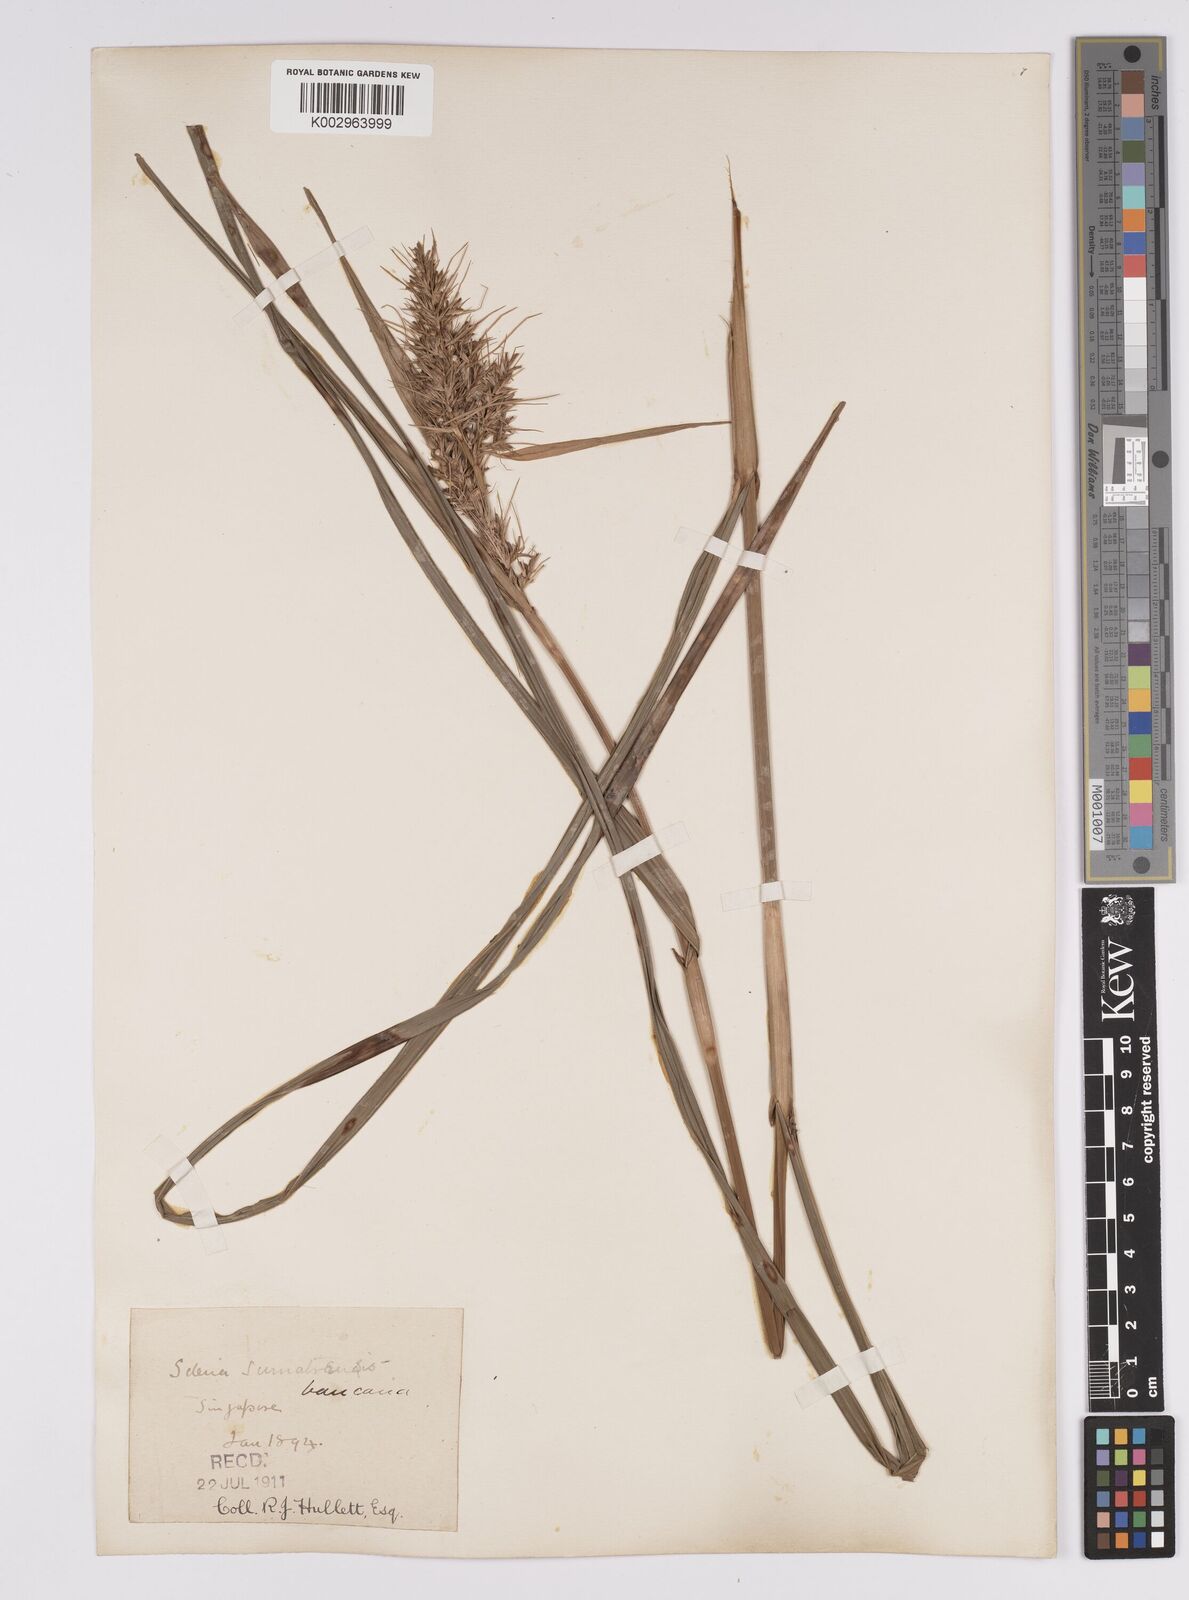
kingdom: Plantae
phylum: Tracheophyta
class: Liliopsida
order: Poales
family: Cyperaceae
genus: Scleria
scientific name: Scleria ciliaris
